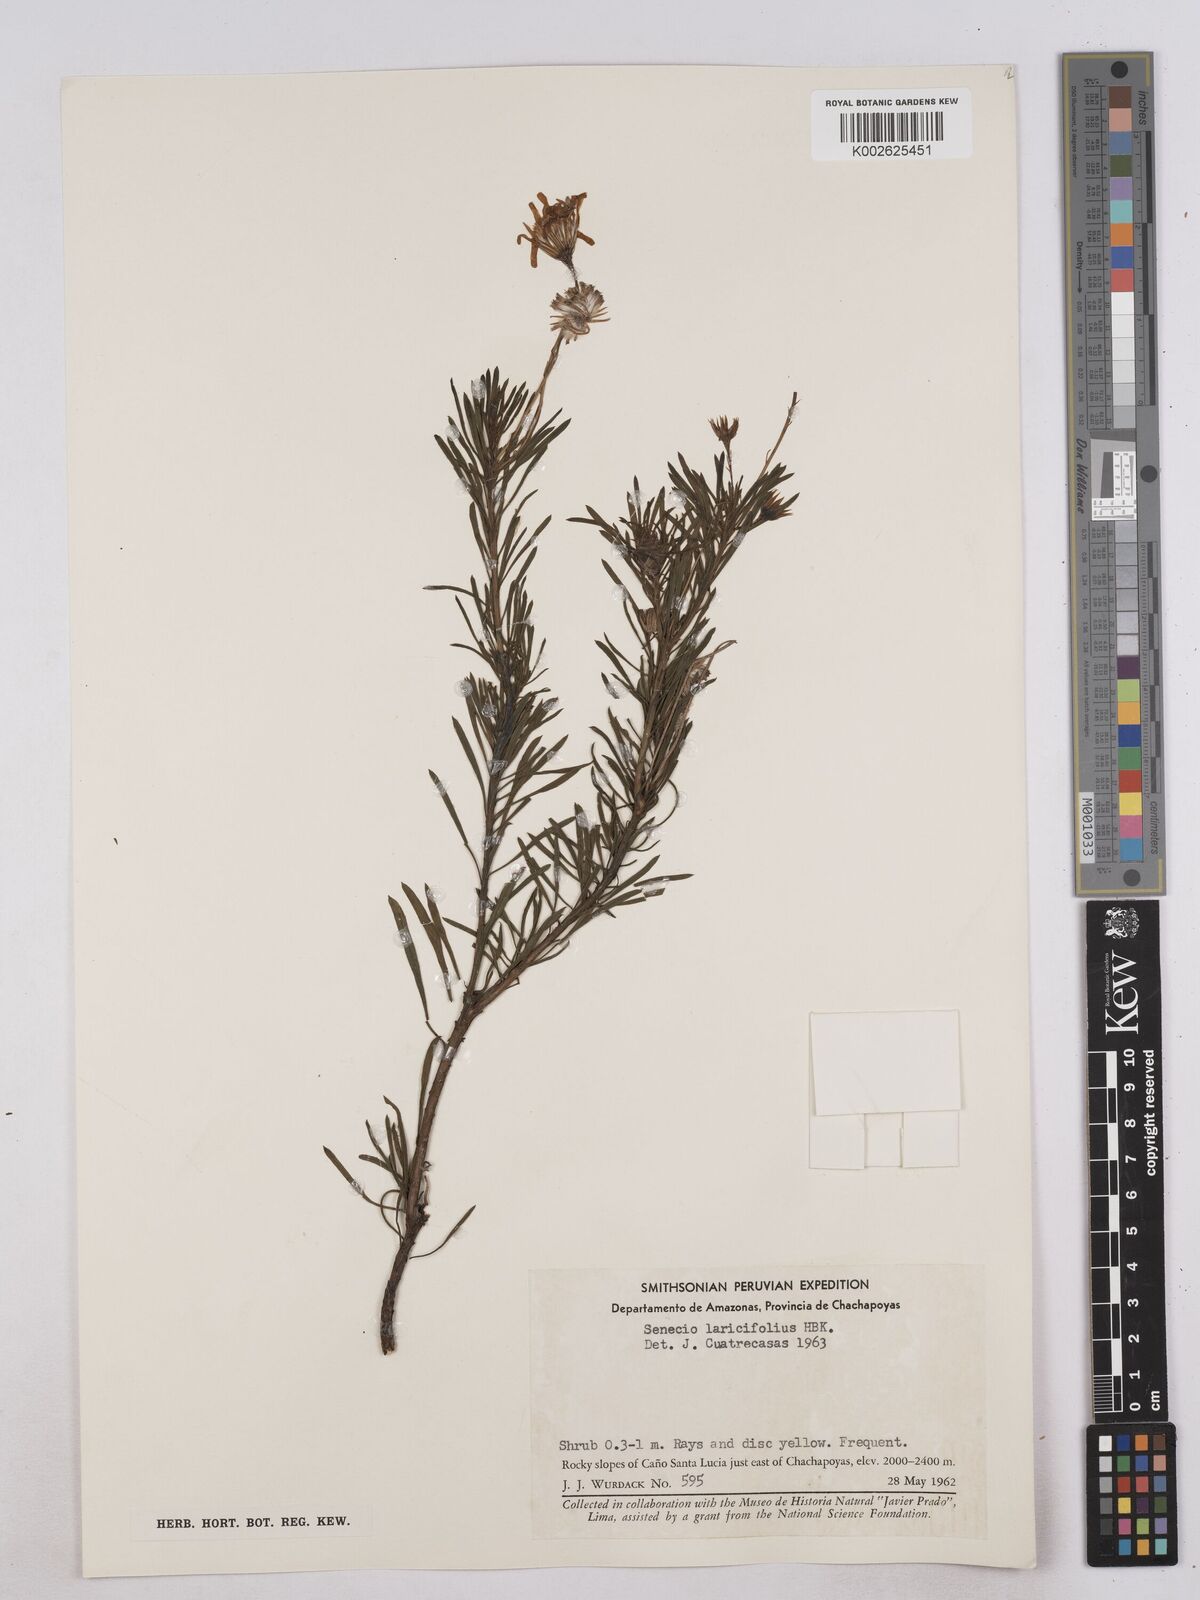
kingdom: Plantae
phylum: Tracheophyta
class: Magnoliopsida
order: Asterales
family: Asteraceae
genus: Senecio
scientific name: Senecio laricifolius
